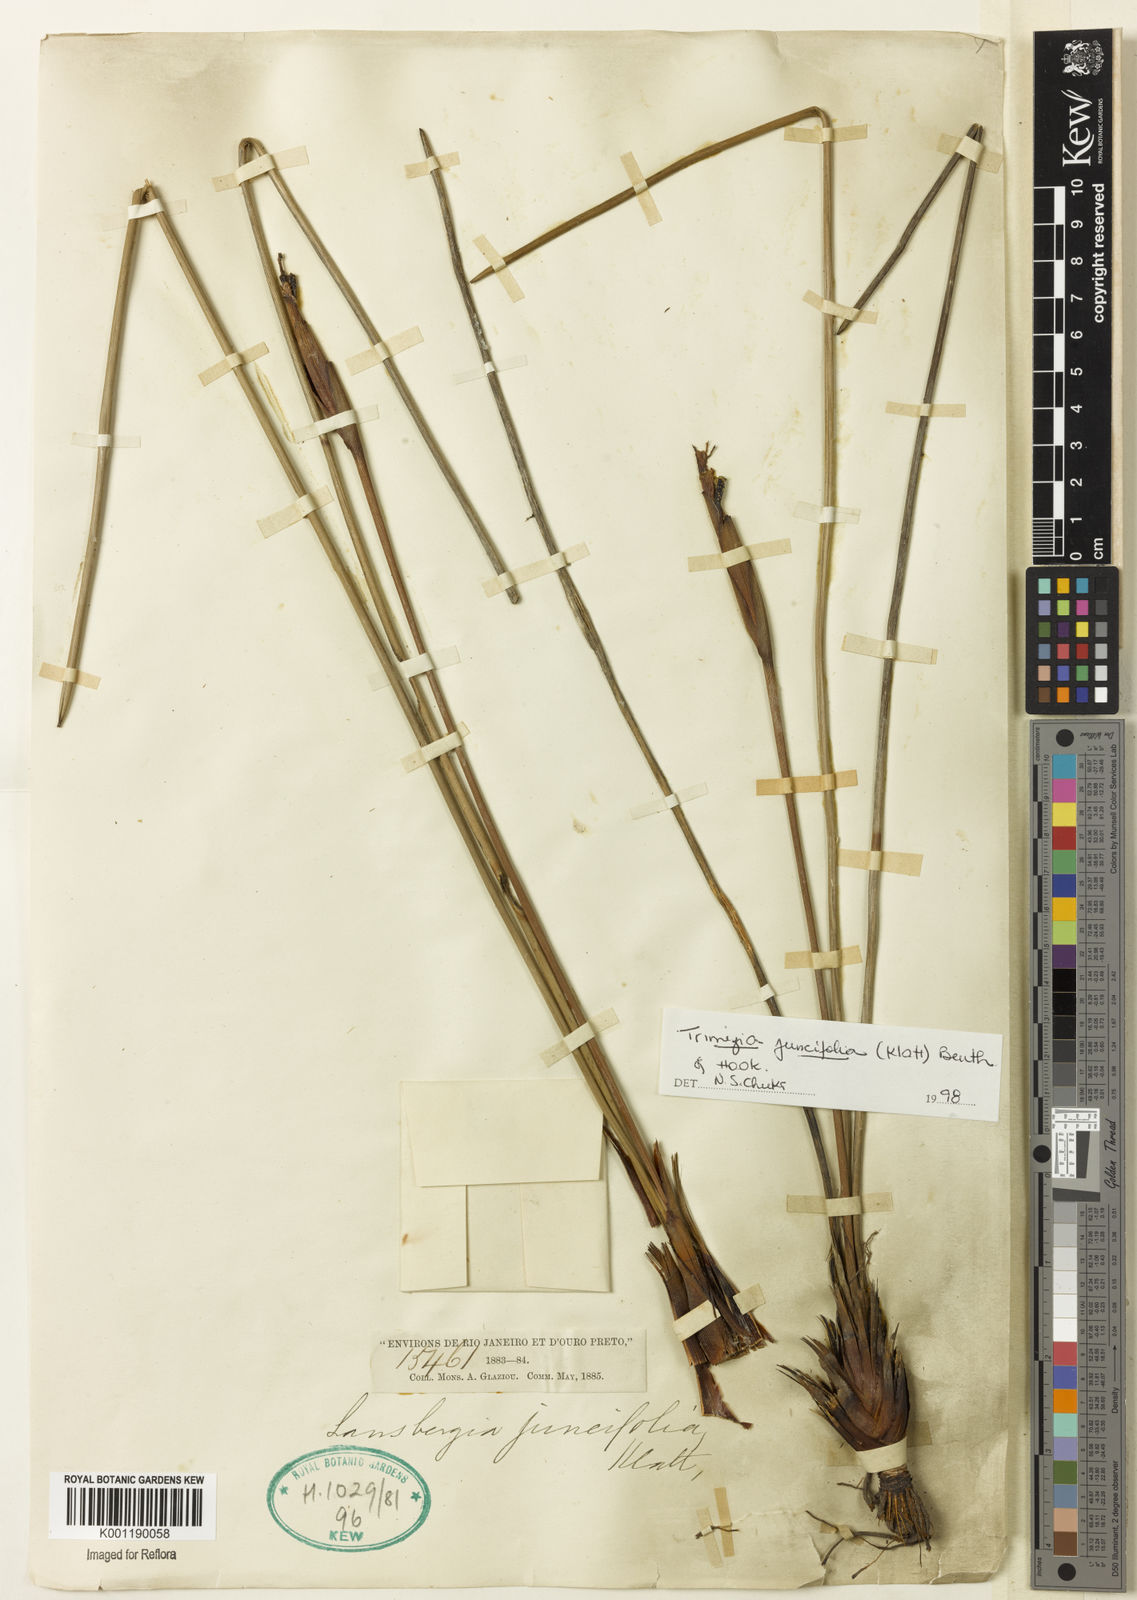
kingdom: Plantae
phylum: Tracheophyta
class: Liliopsida
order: Asparagales
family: Iridaceae
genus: Trimezia
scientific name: Trimezia juncifolia
